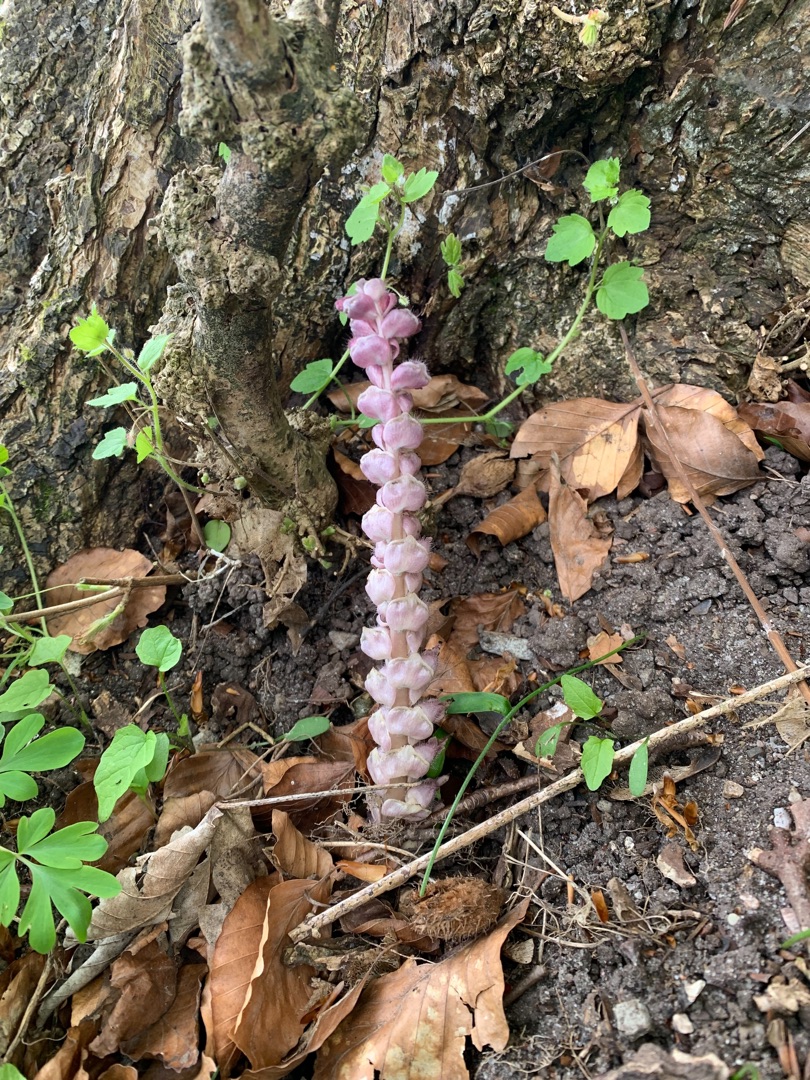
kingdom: Plantae
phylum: Tracheophyta
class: Magnoliopsida
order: Lamiales
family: Orobanchaceae
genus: Lathraea
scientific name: Lathraea squamaria
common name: Skælrod
